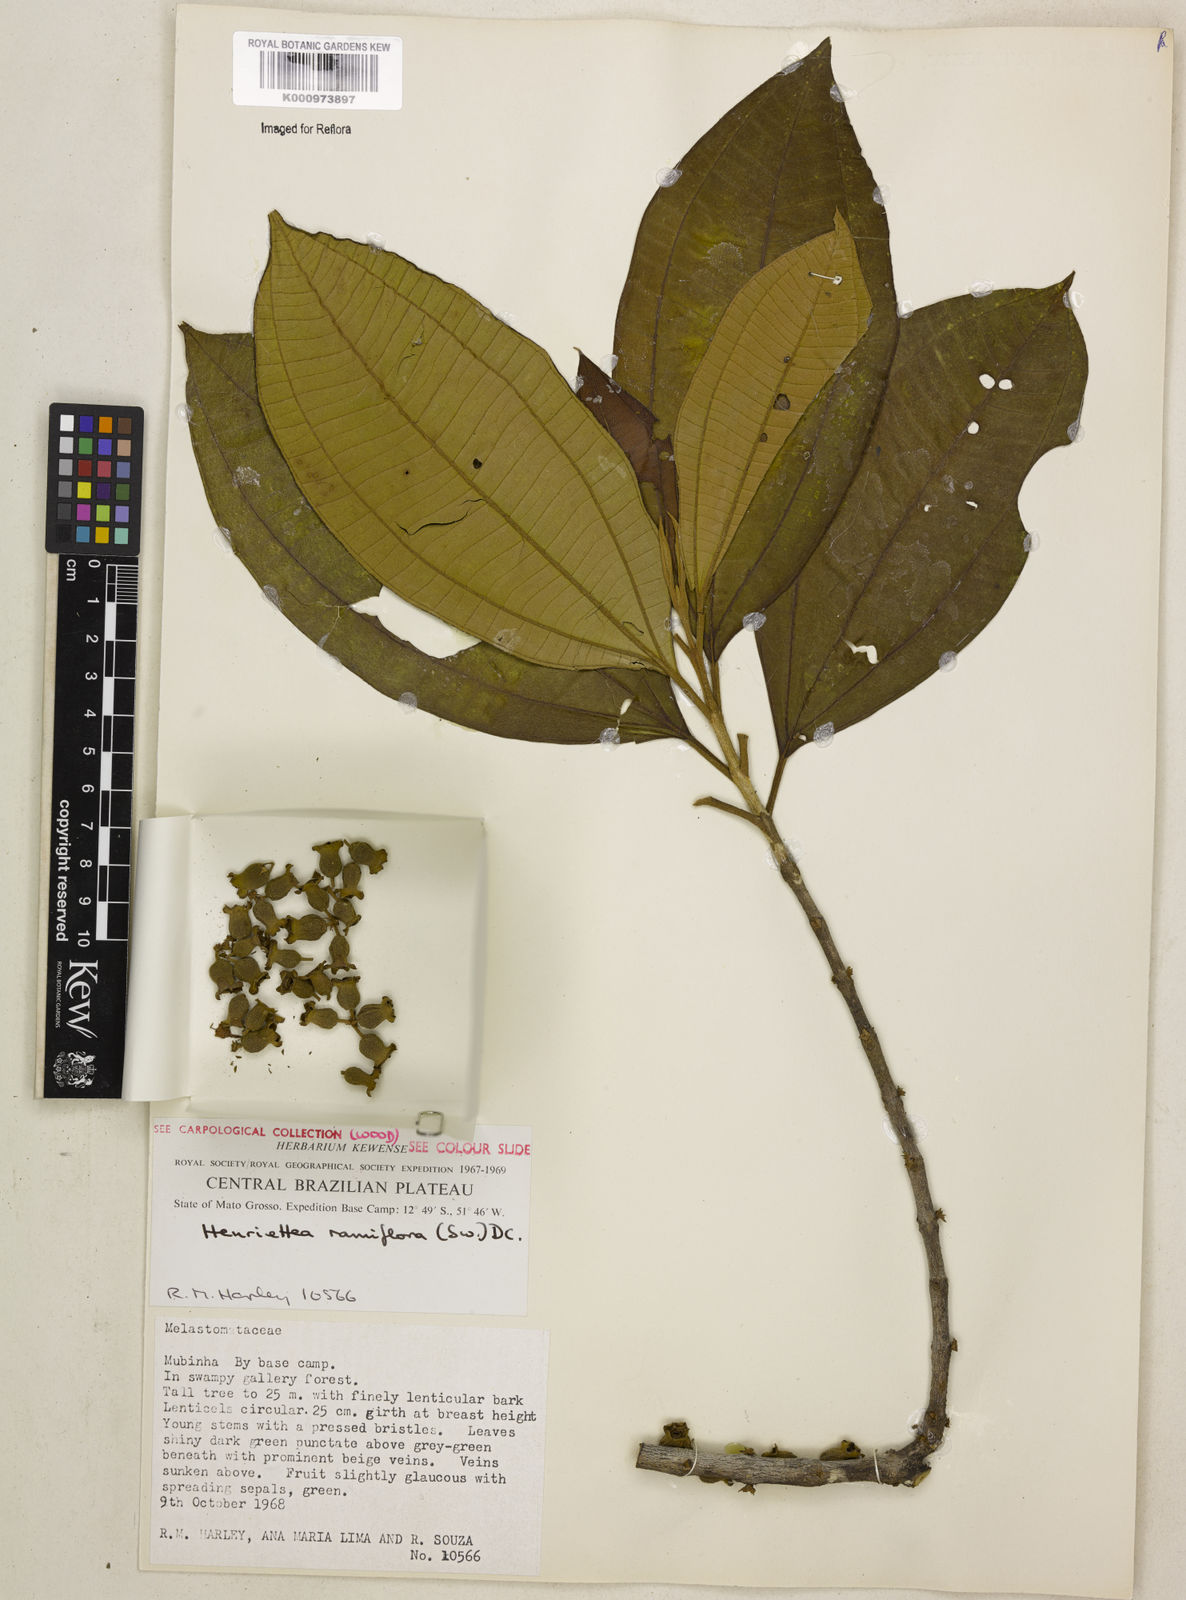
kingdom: Plantae
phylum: Tracheophyta
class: Magnoliopsida
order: Myrtales
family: Melastomataceae
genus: Henriettea
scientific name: Henriettea ramiflora
